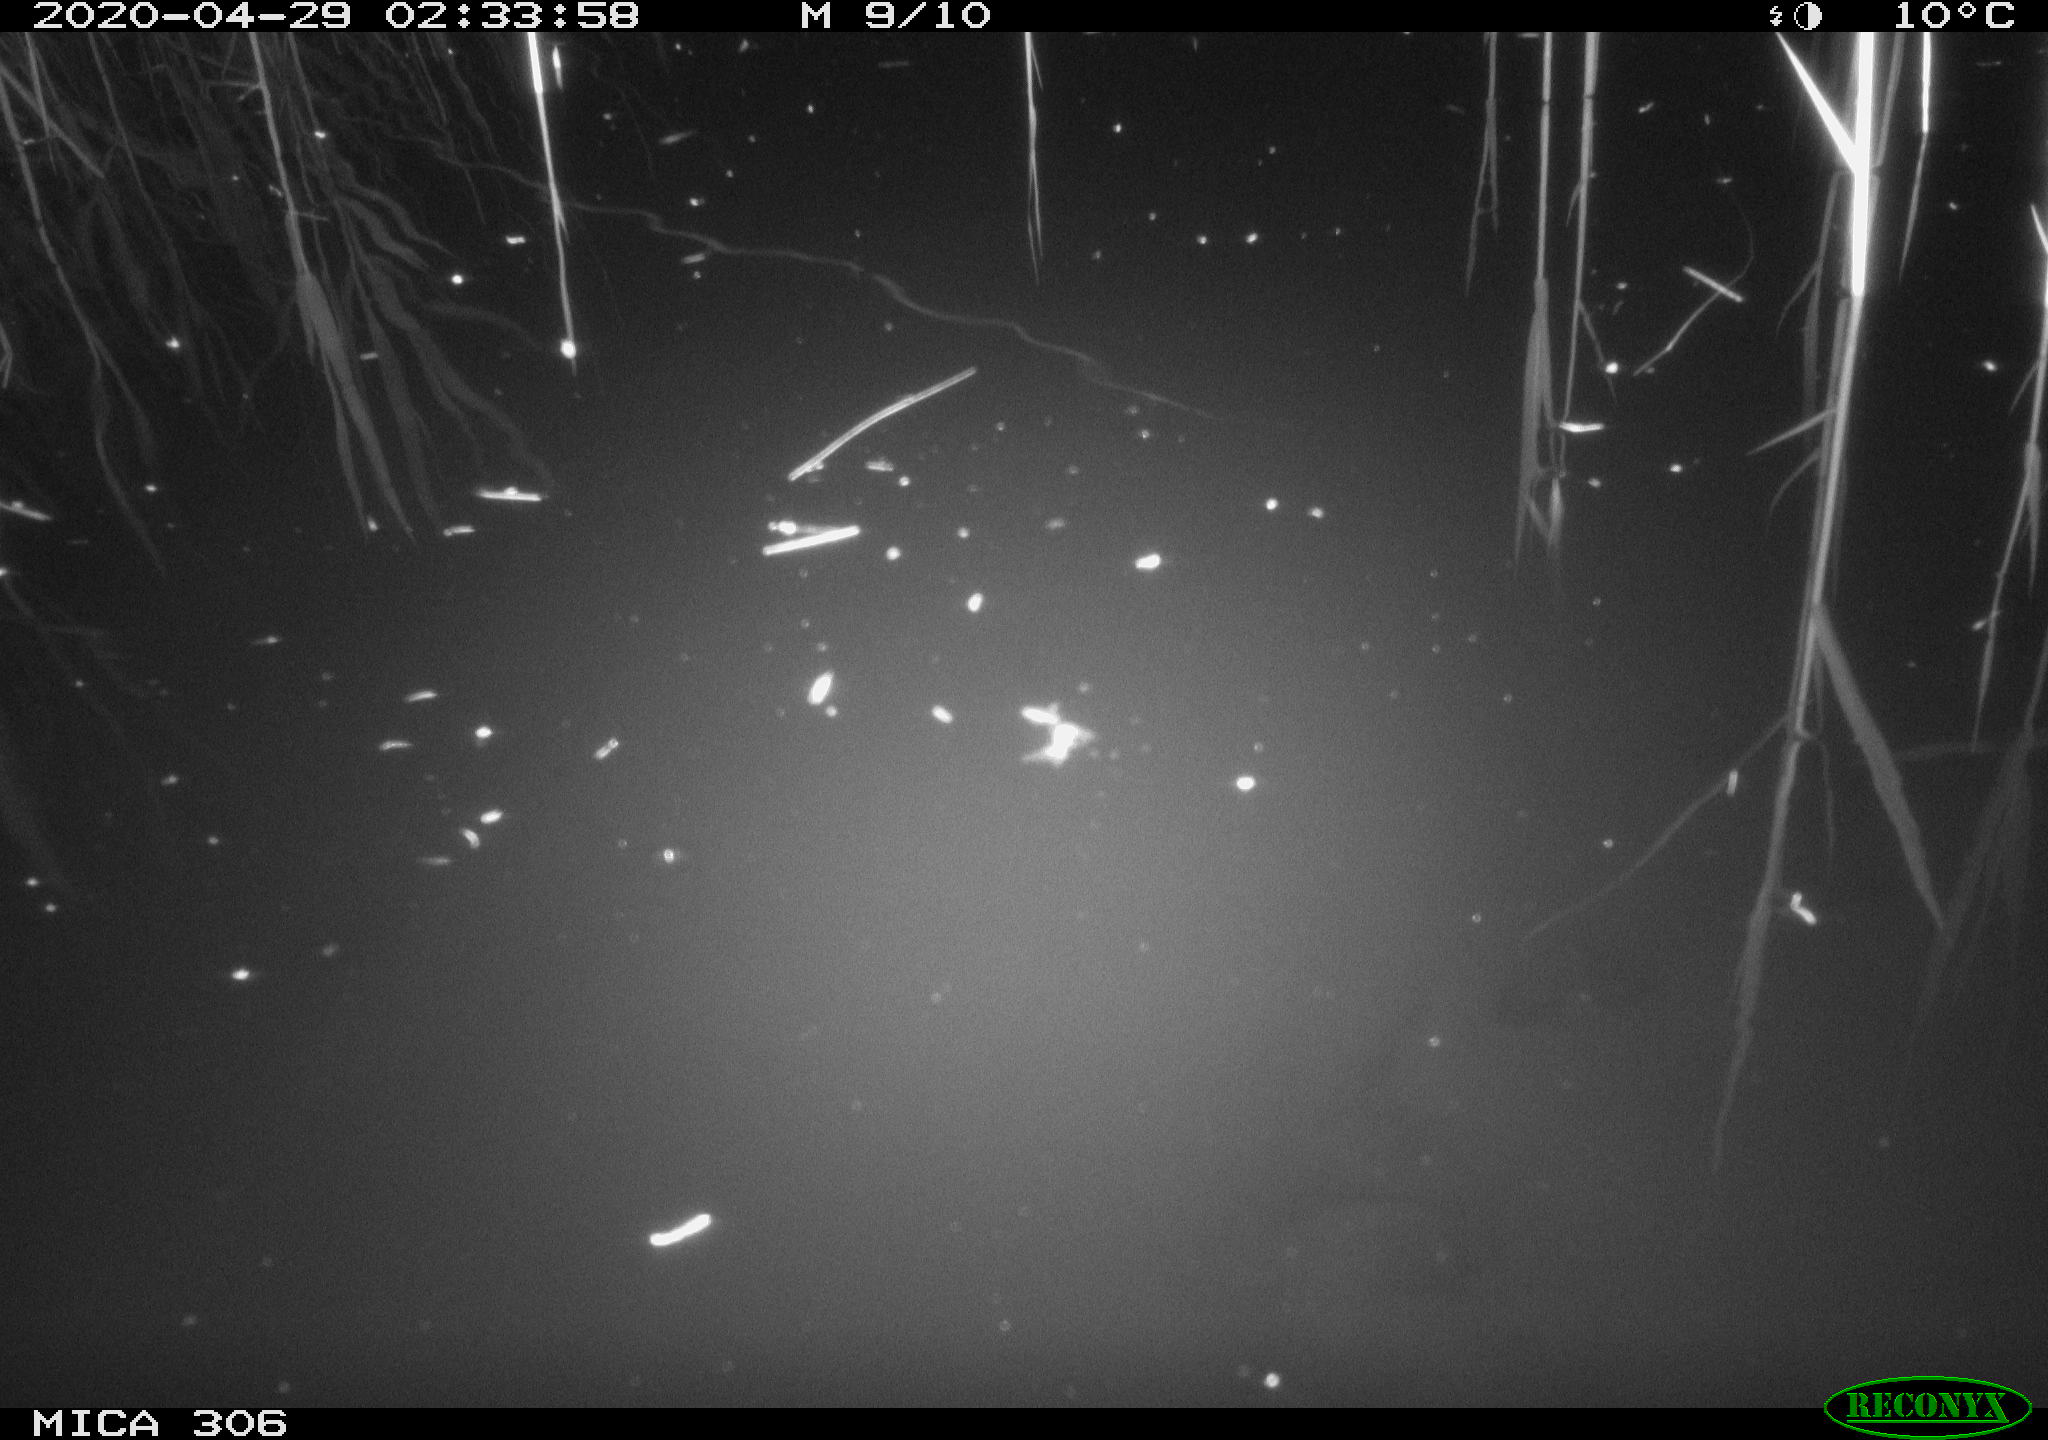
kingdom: Animalia
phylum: Chordata
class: Mammalia
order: Rodentia
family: Cricetidae
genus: Ondatra
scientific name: Ondatra zibethicus
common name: Muskrat
